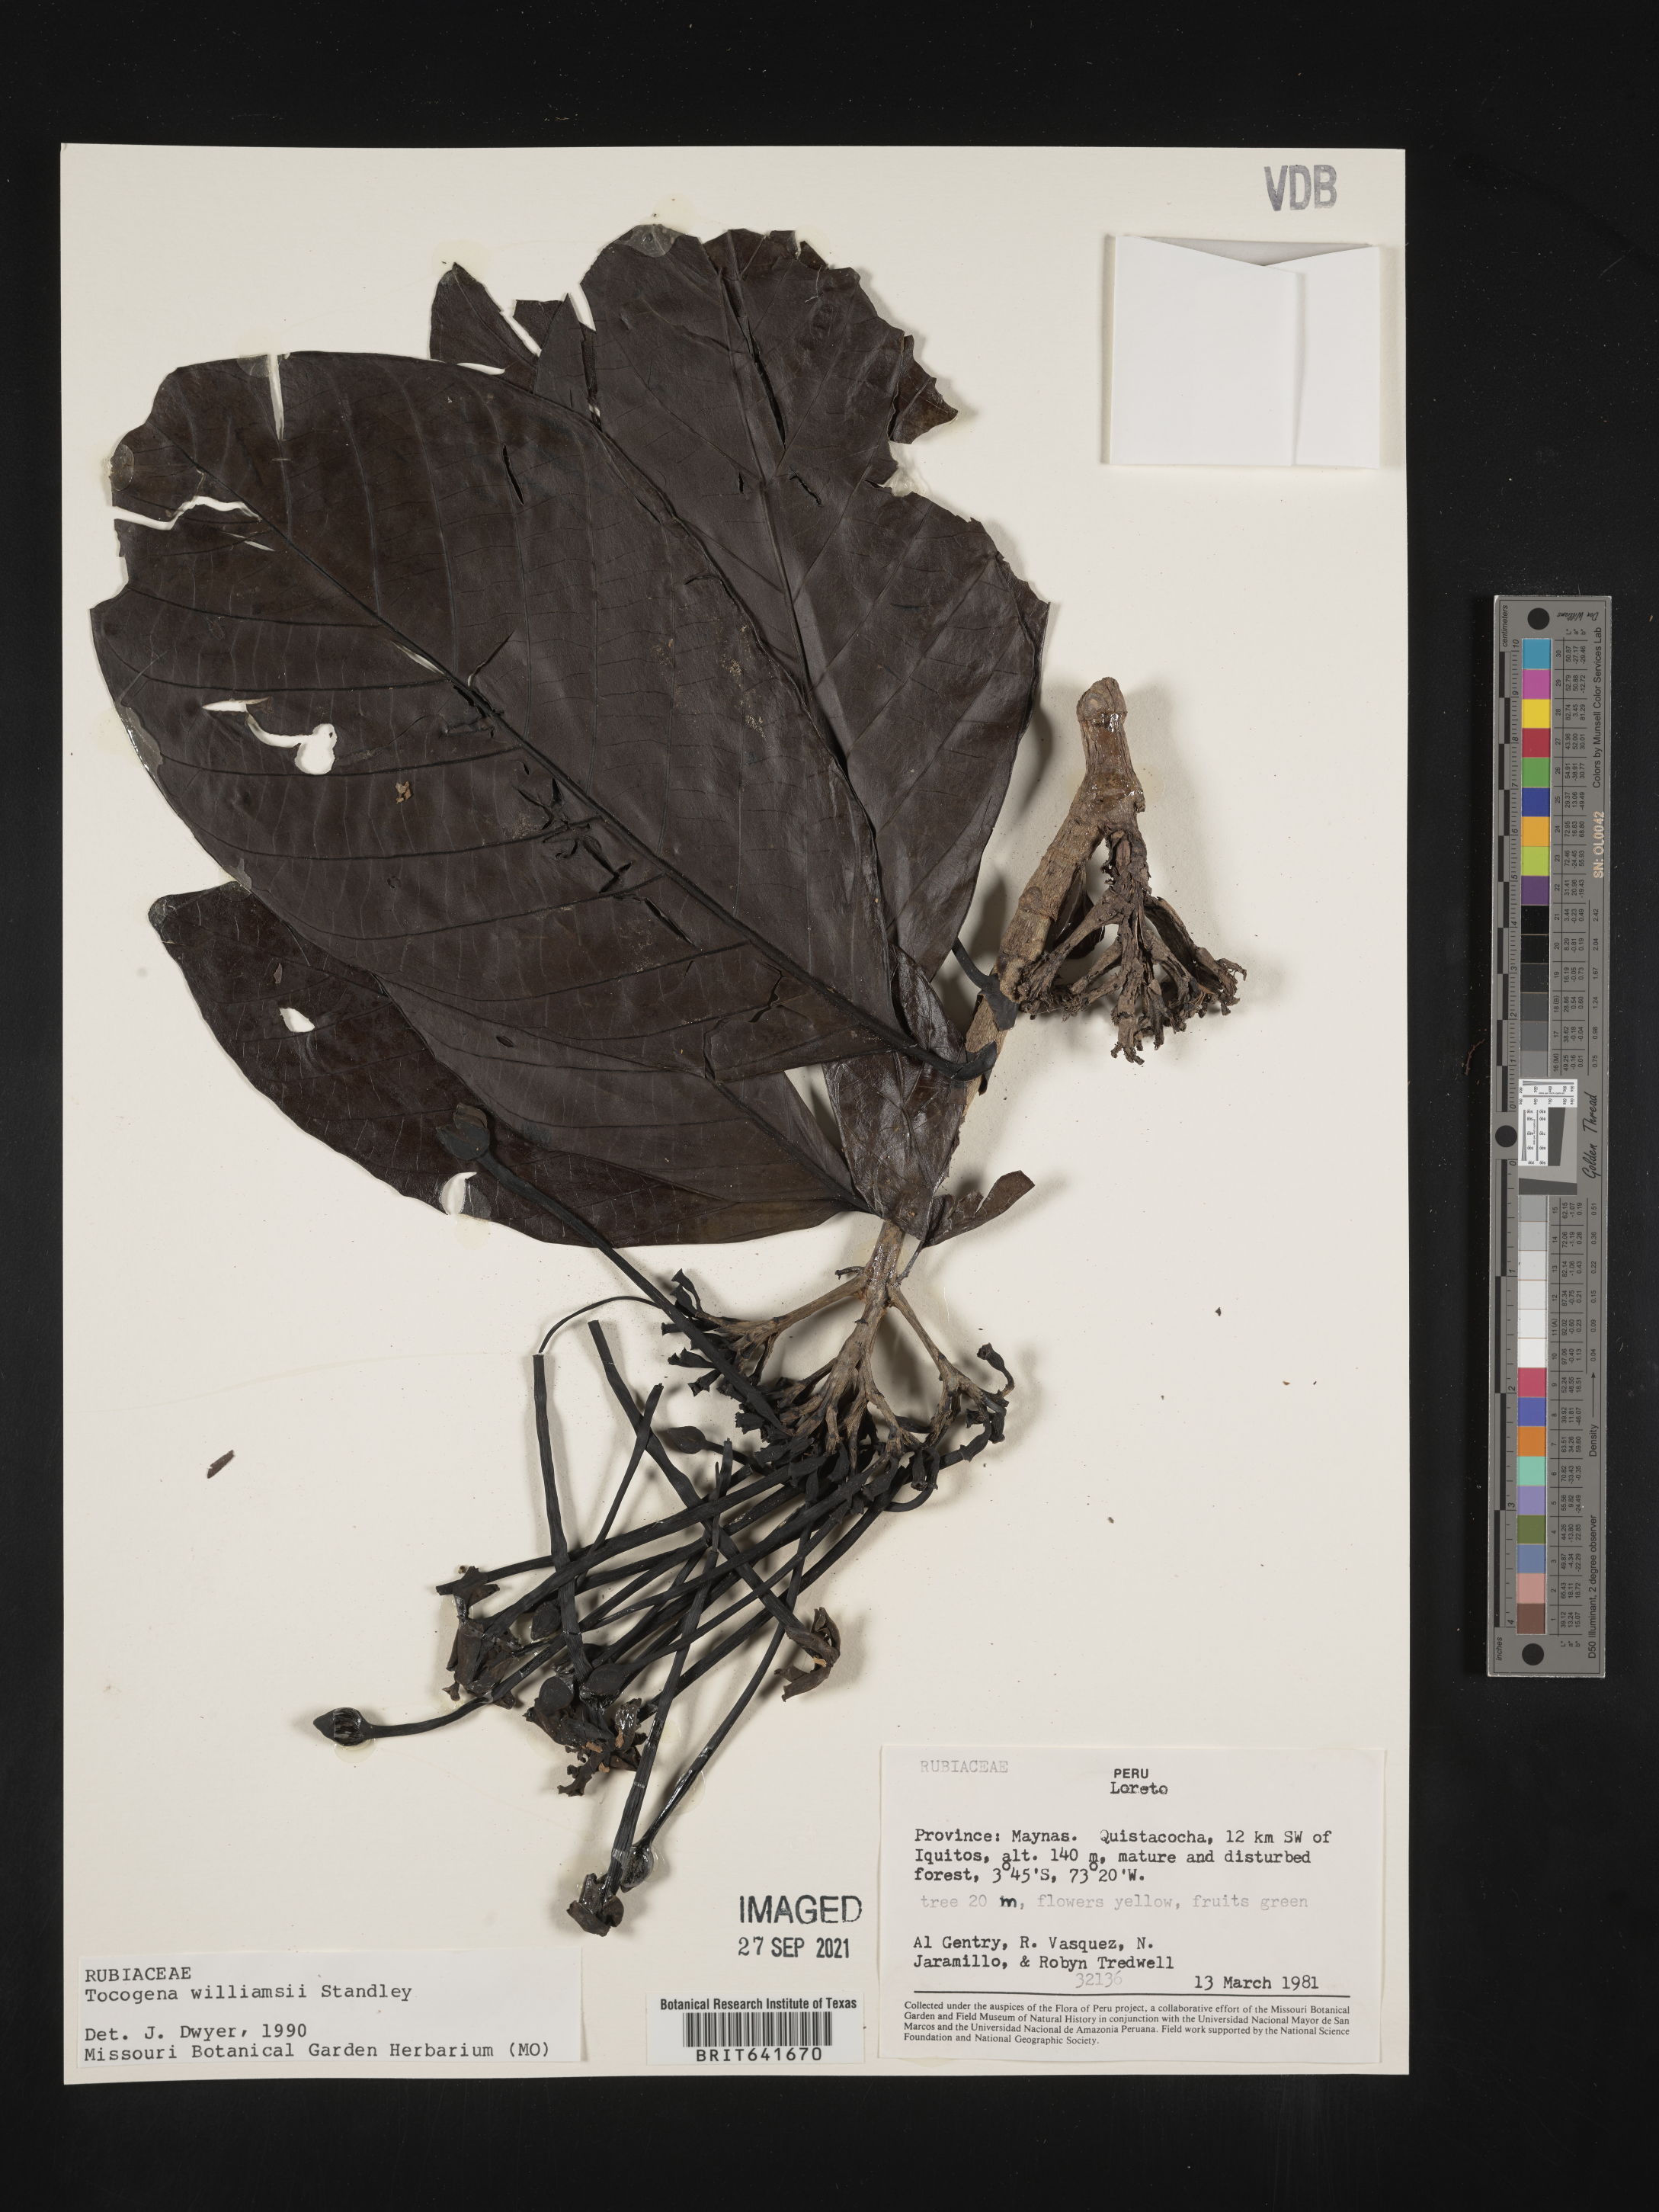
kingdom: Plantae
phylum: Tracheophyta
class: Magnoliopsida
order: Gentianales
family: Rubiaceae
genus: Tocoyena
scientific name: Tocoyena
